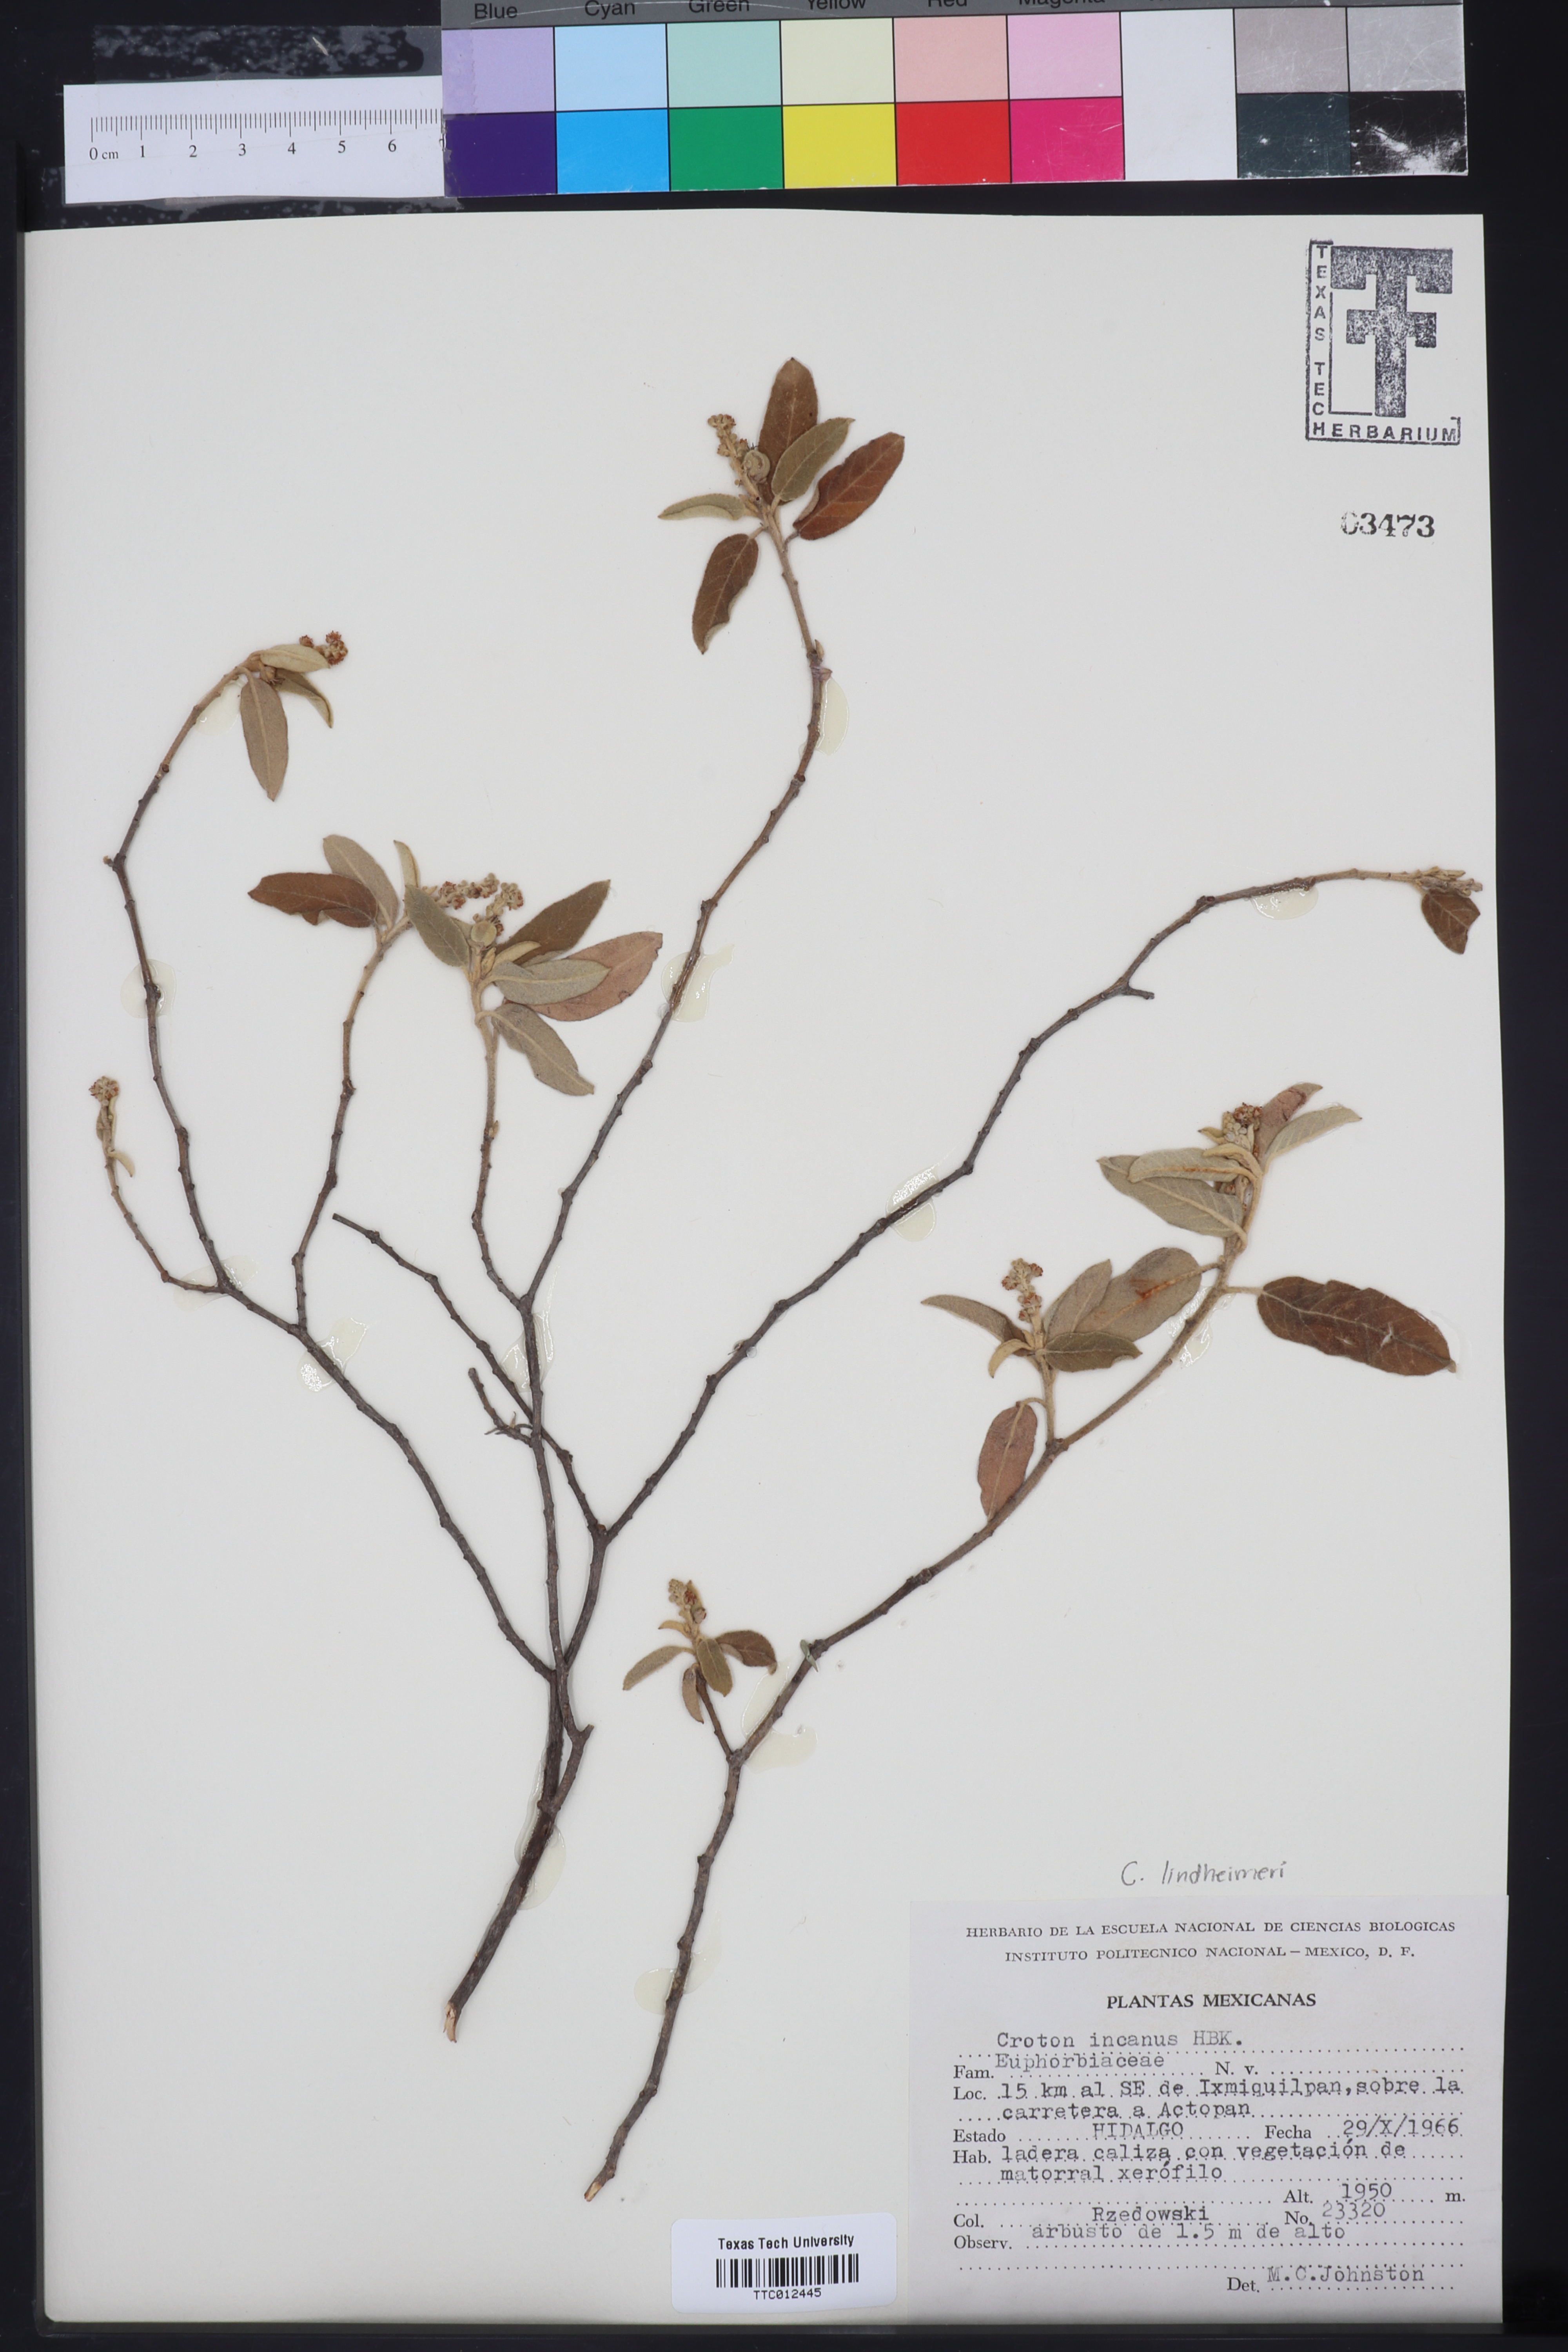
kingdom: Plantae
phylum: Tracheophyta
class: Magnoliopsida
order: Malpighiales
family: Euphorbiaceae
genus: Croton
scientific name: Croton incanus
